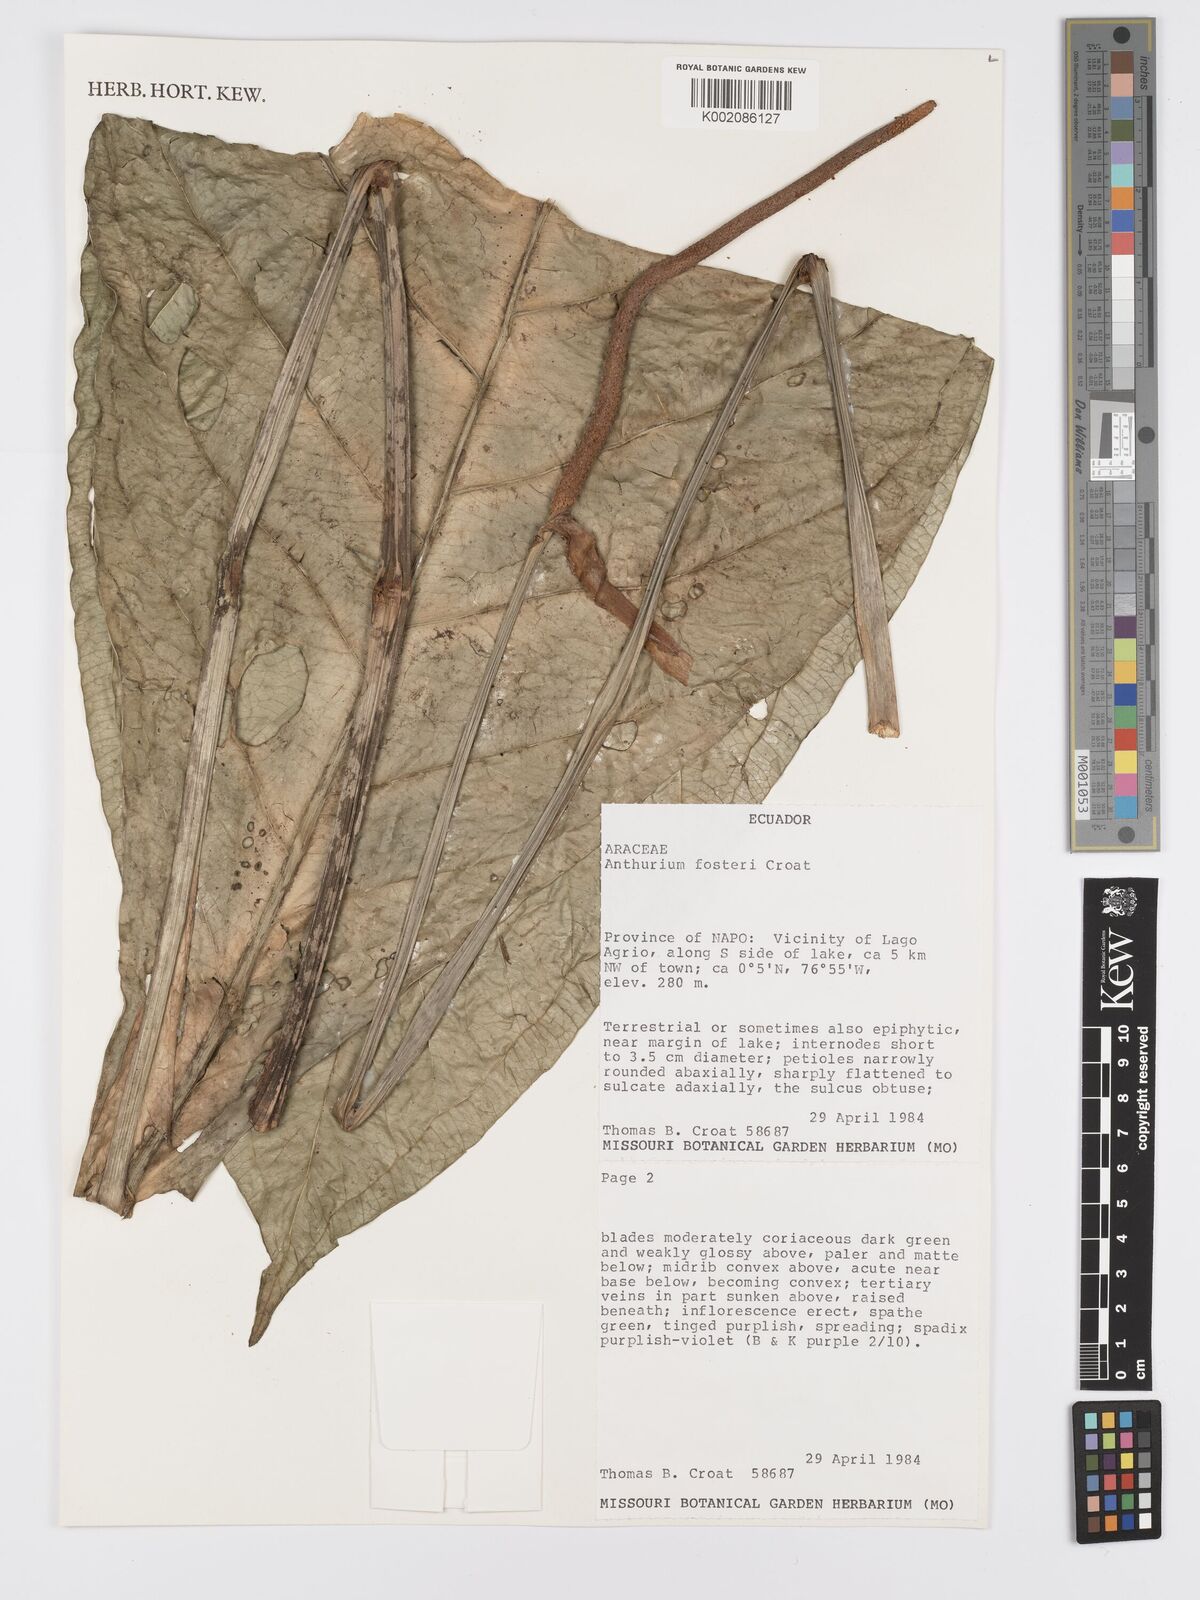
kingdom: Plantae
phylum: Tracheophyta
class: Liliopsida
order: Alismatales
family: Araceae
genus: Anthurium
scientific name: Anthurium fosteri
